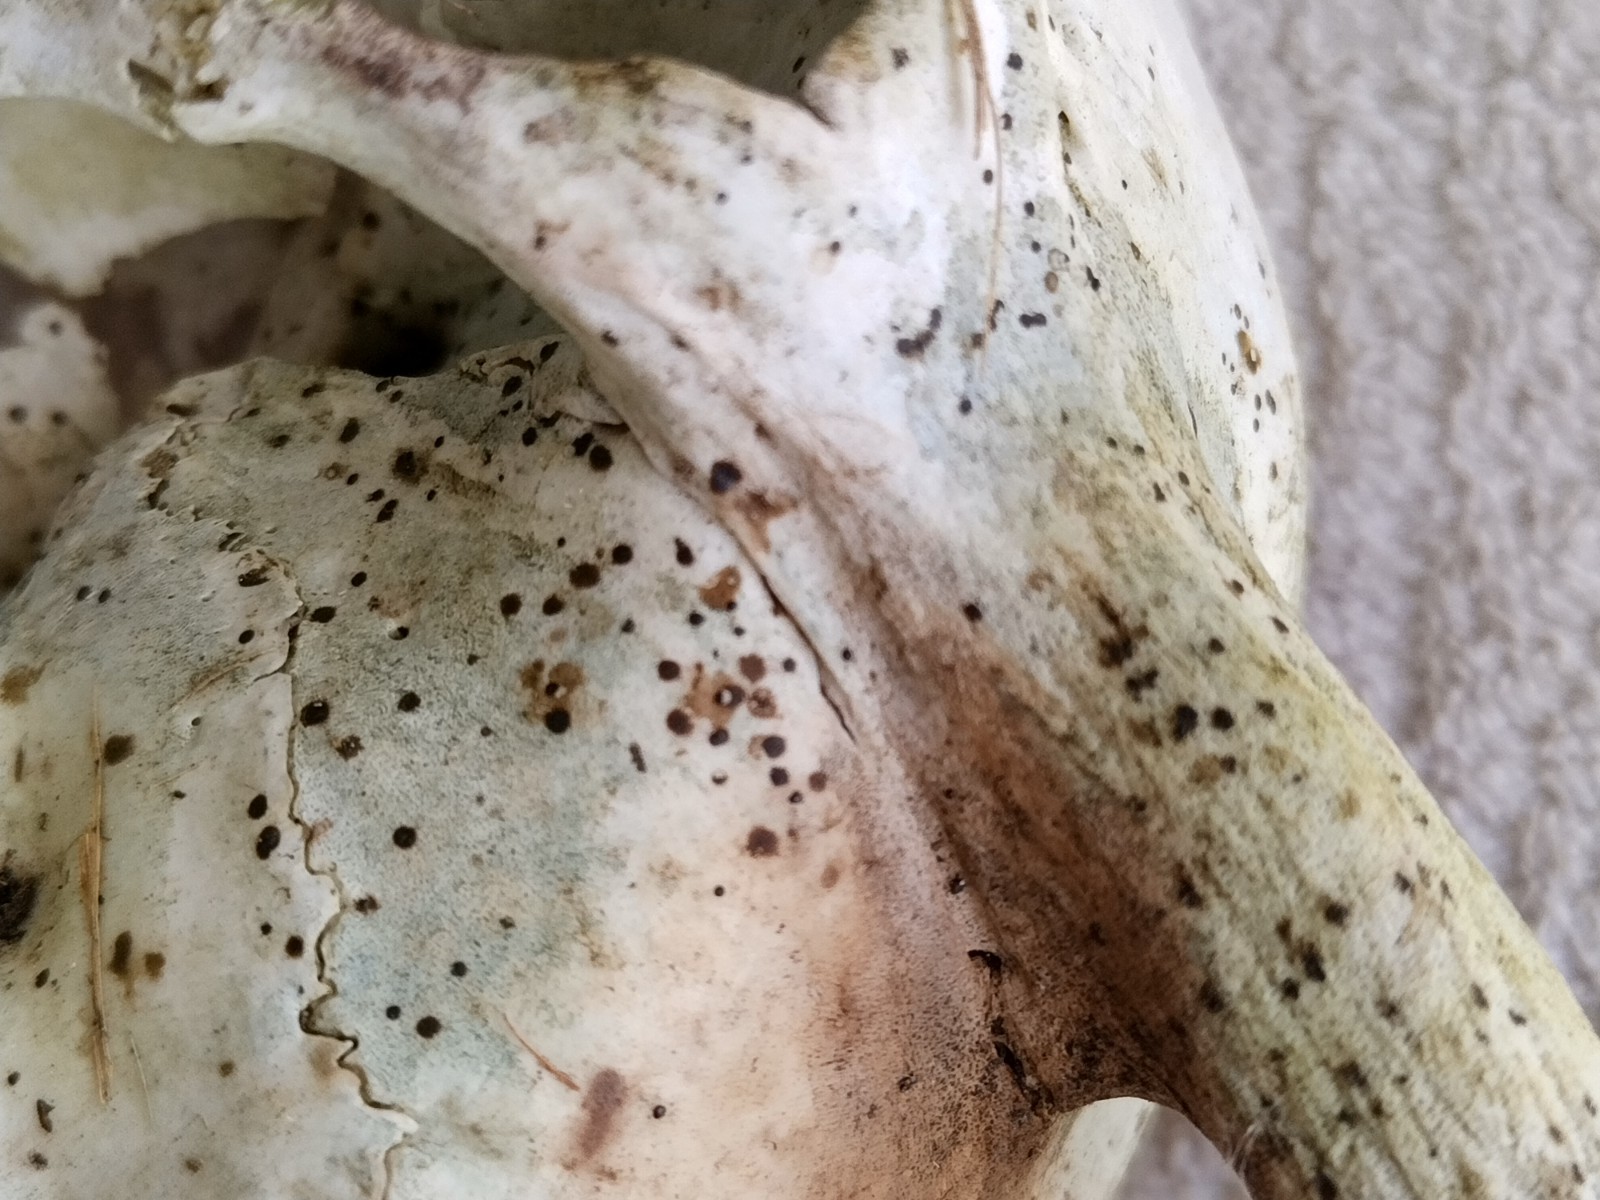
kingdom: Fungi
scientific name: Fungi
